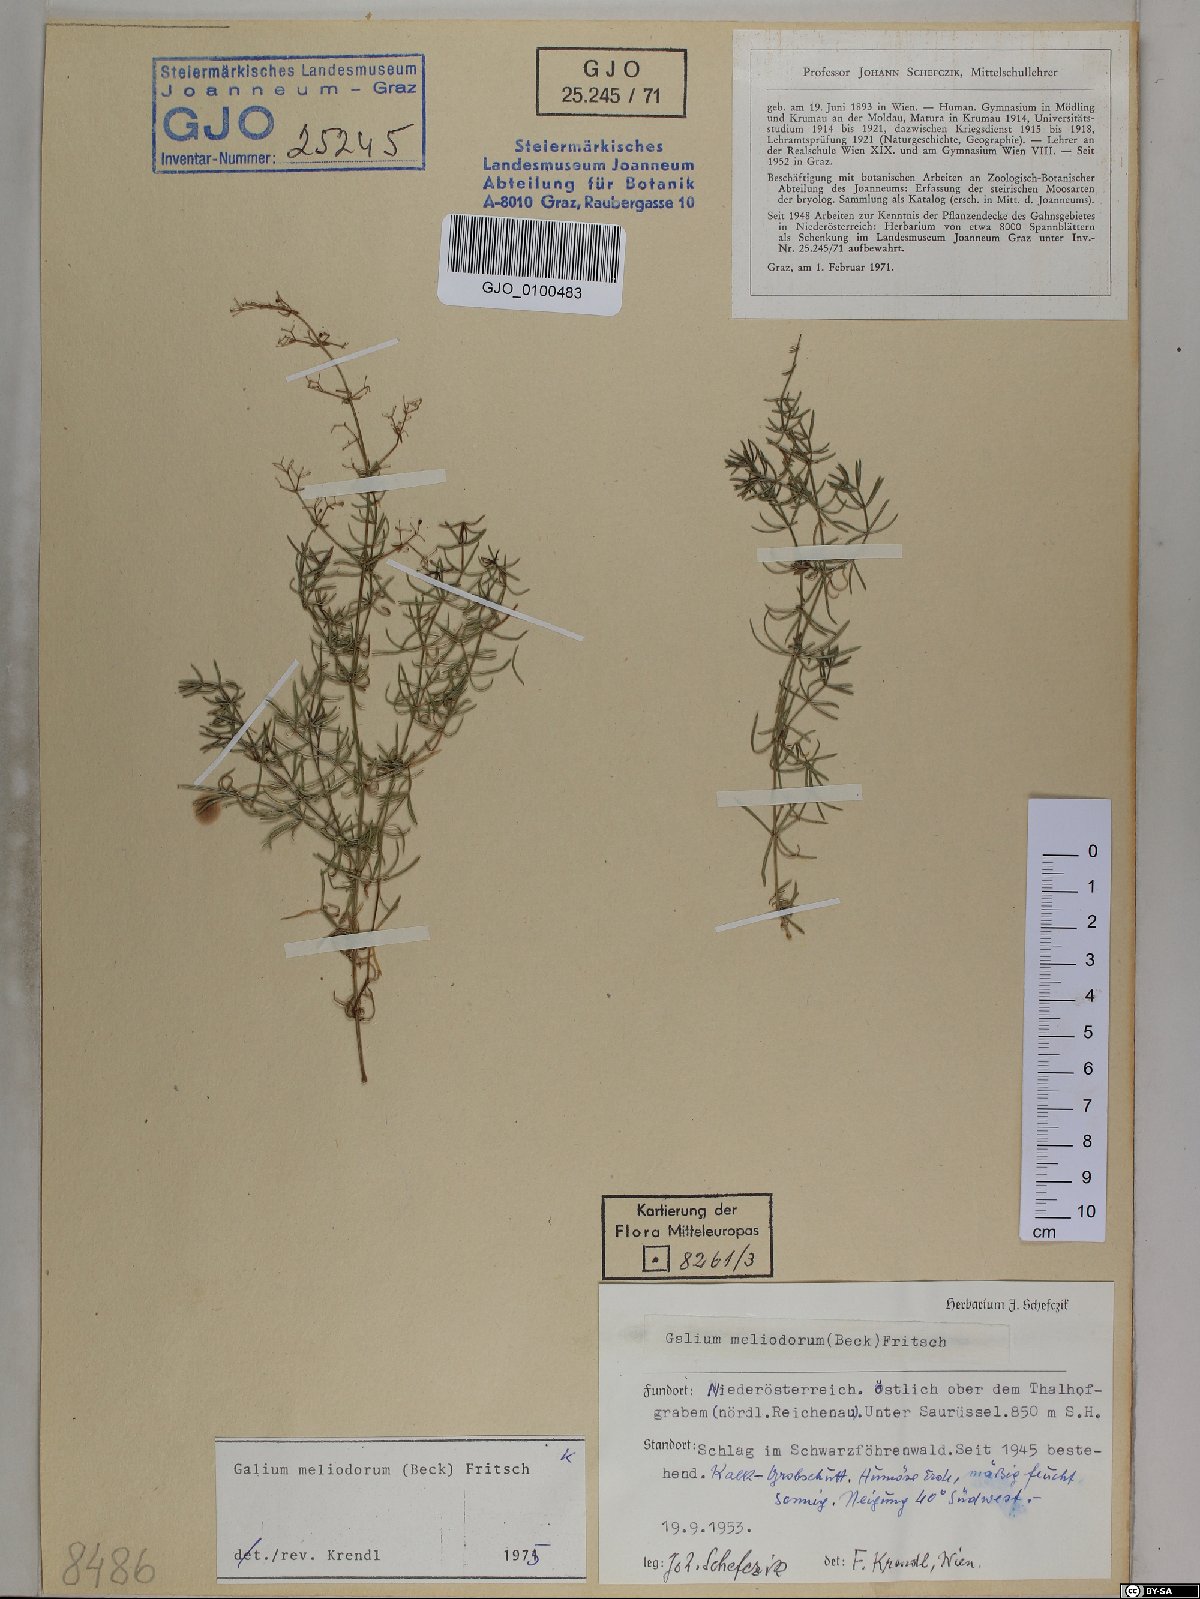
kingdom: Plantae
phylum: Tracheophyta
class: Magnoliopsida
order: Gentianales
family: Rubiaceae
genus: Galium
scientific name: Galium meliodorum
